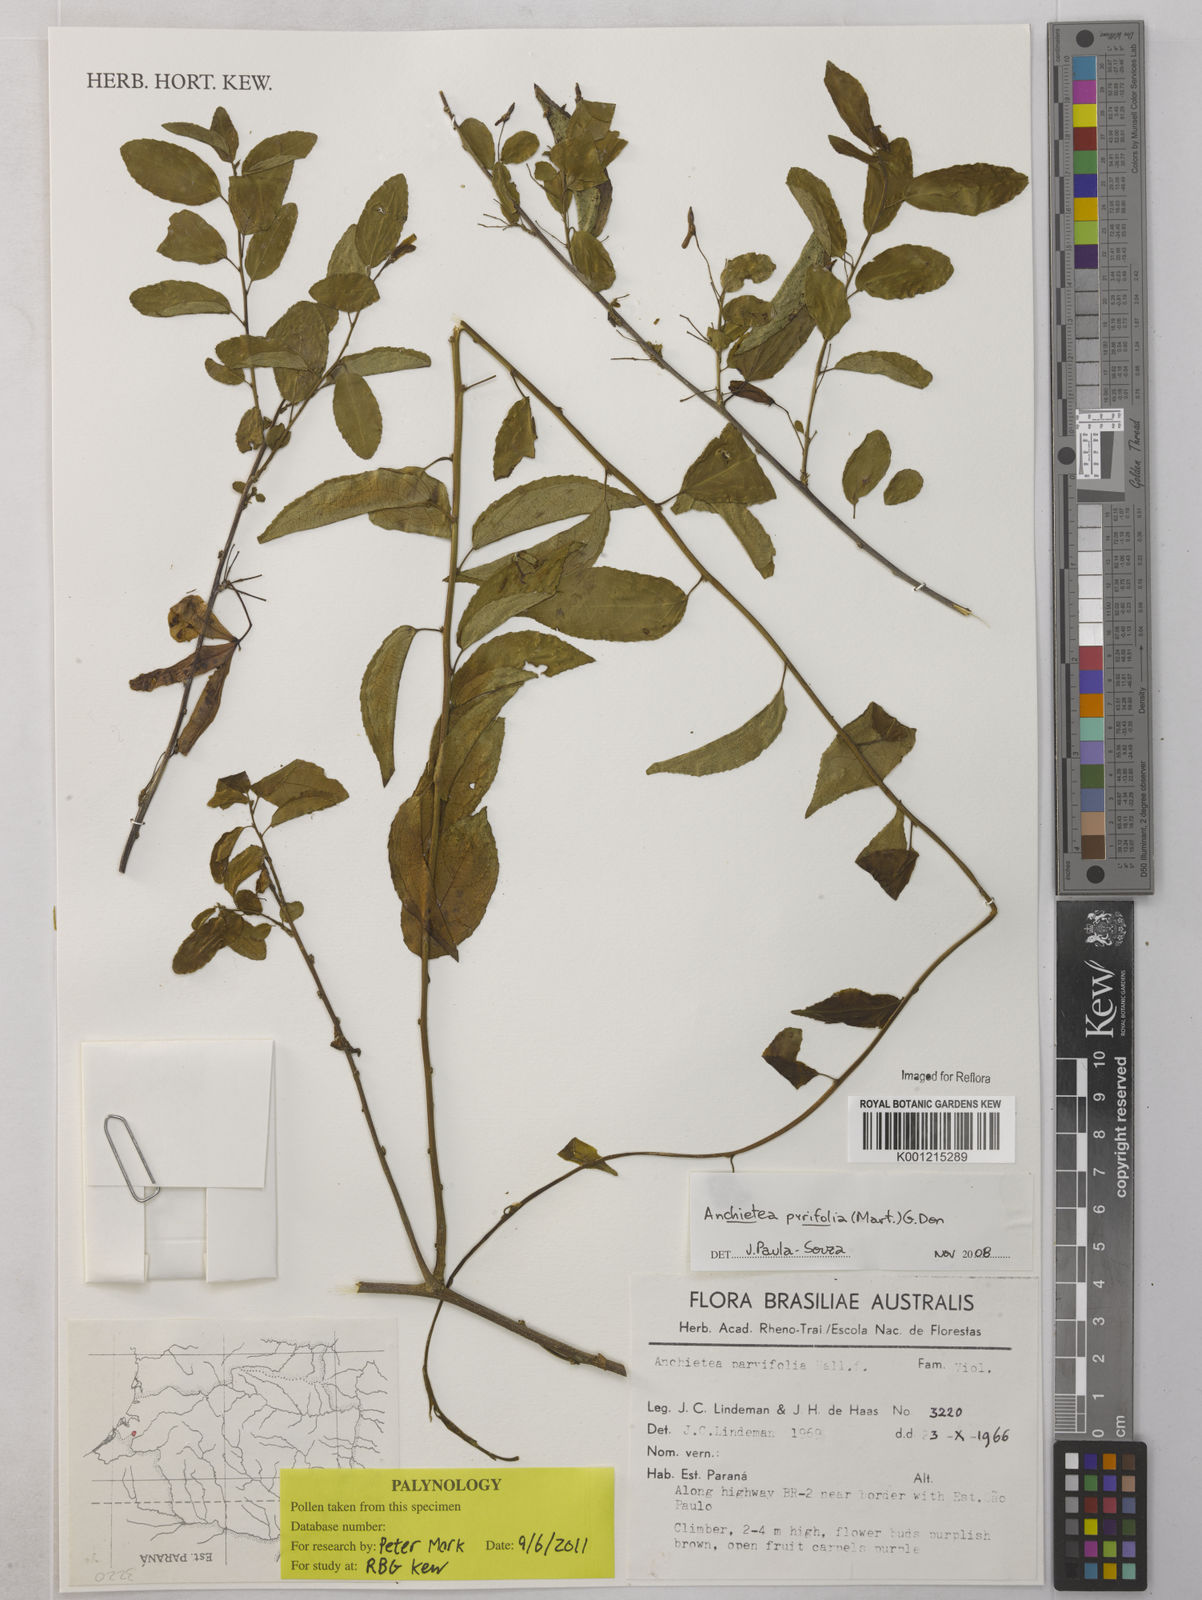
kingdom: Plantae
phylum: Tracheophyta
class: Magnoliopsida
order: Malpighiales
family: Violaceae
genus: Anchietea
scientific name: Anchietea pyrifolia
